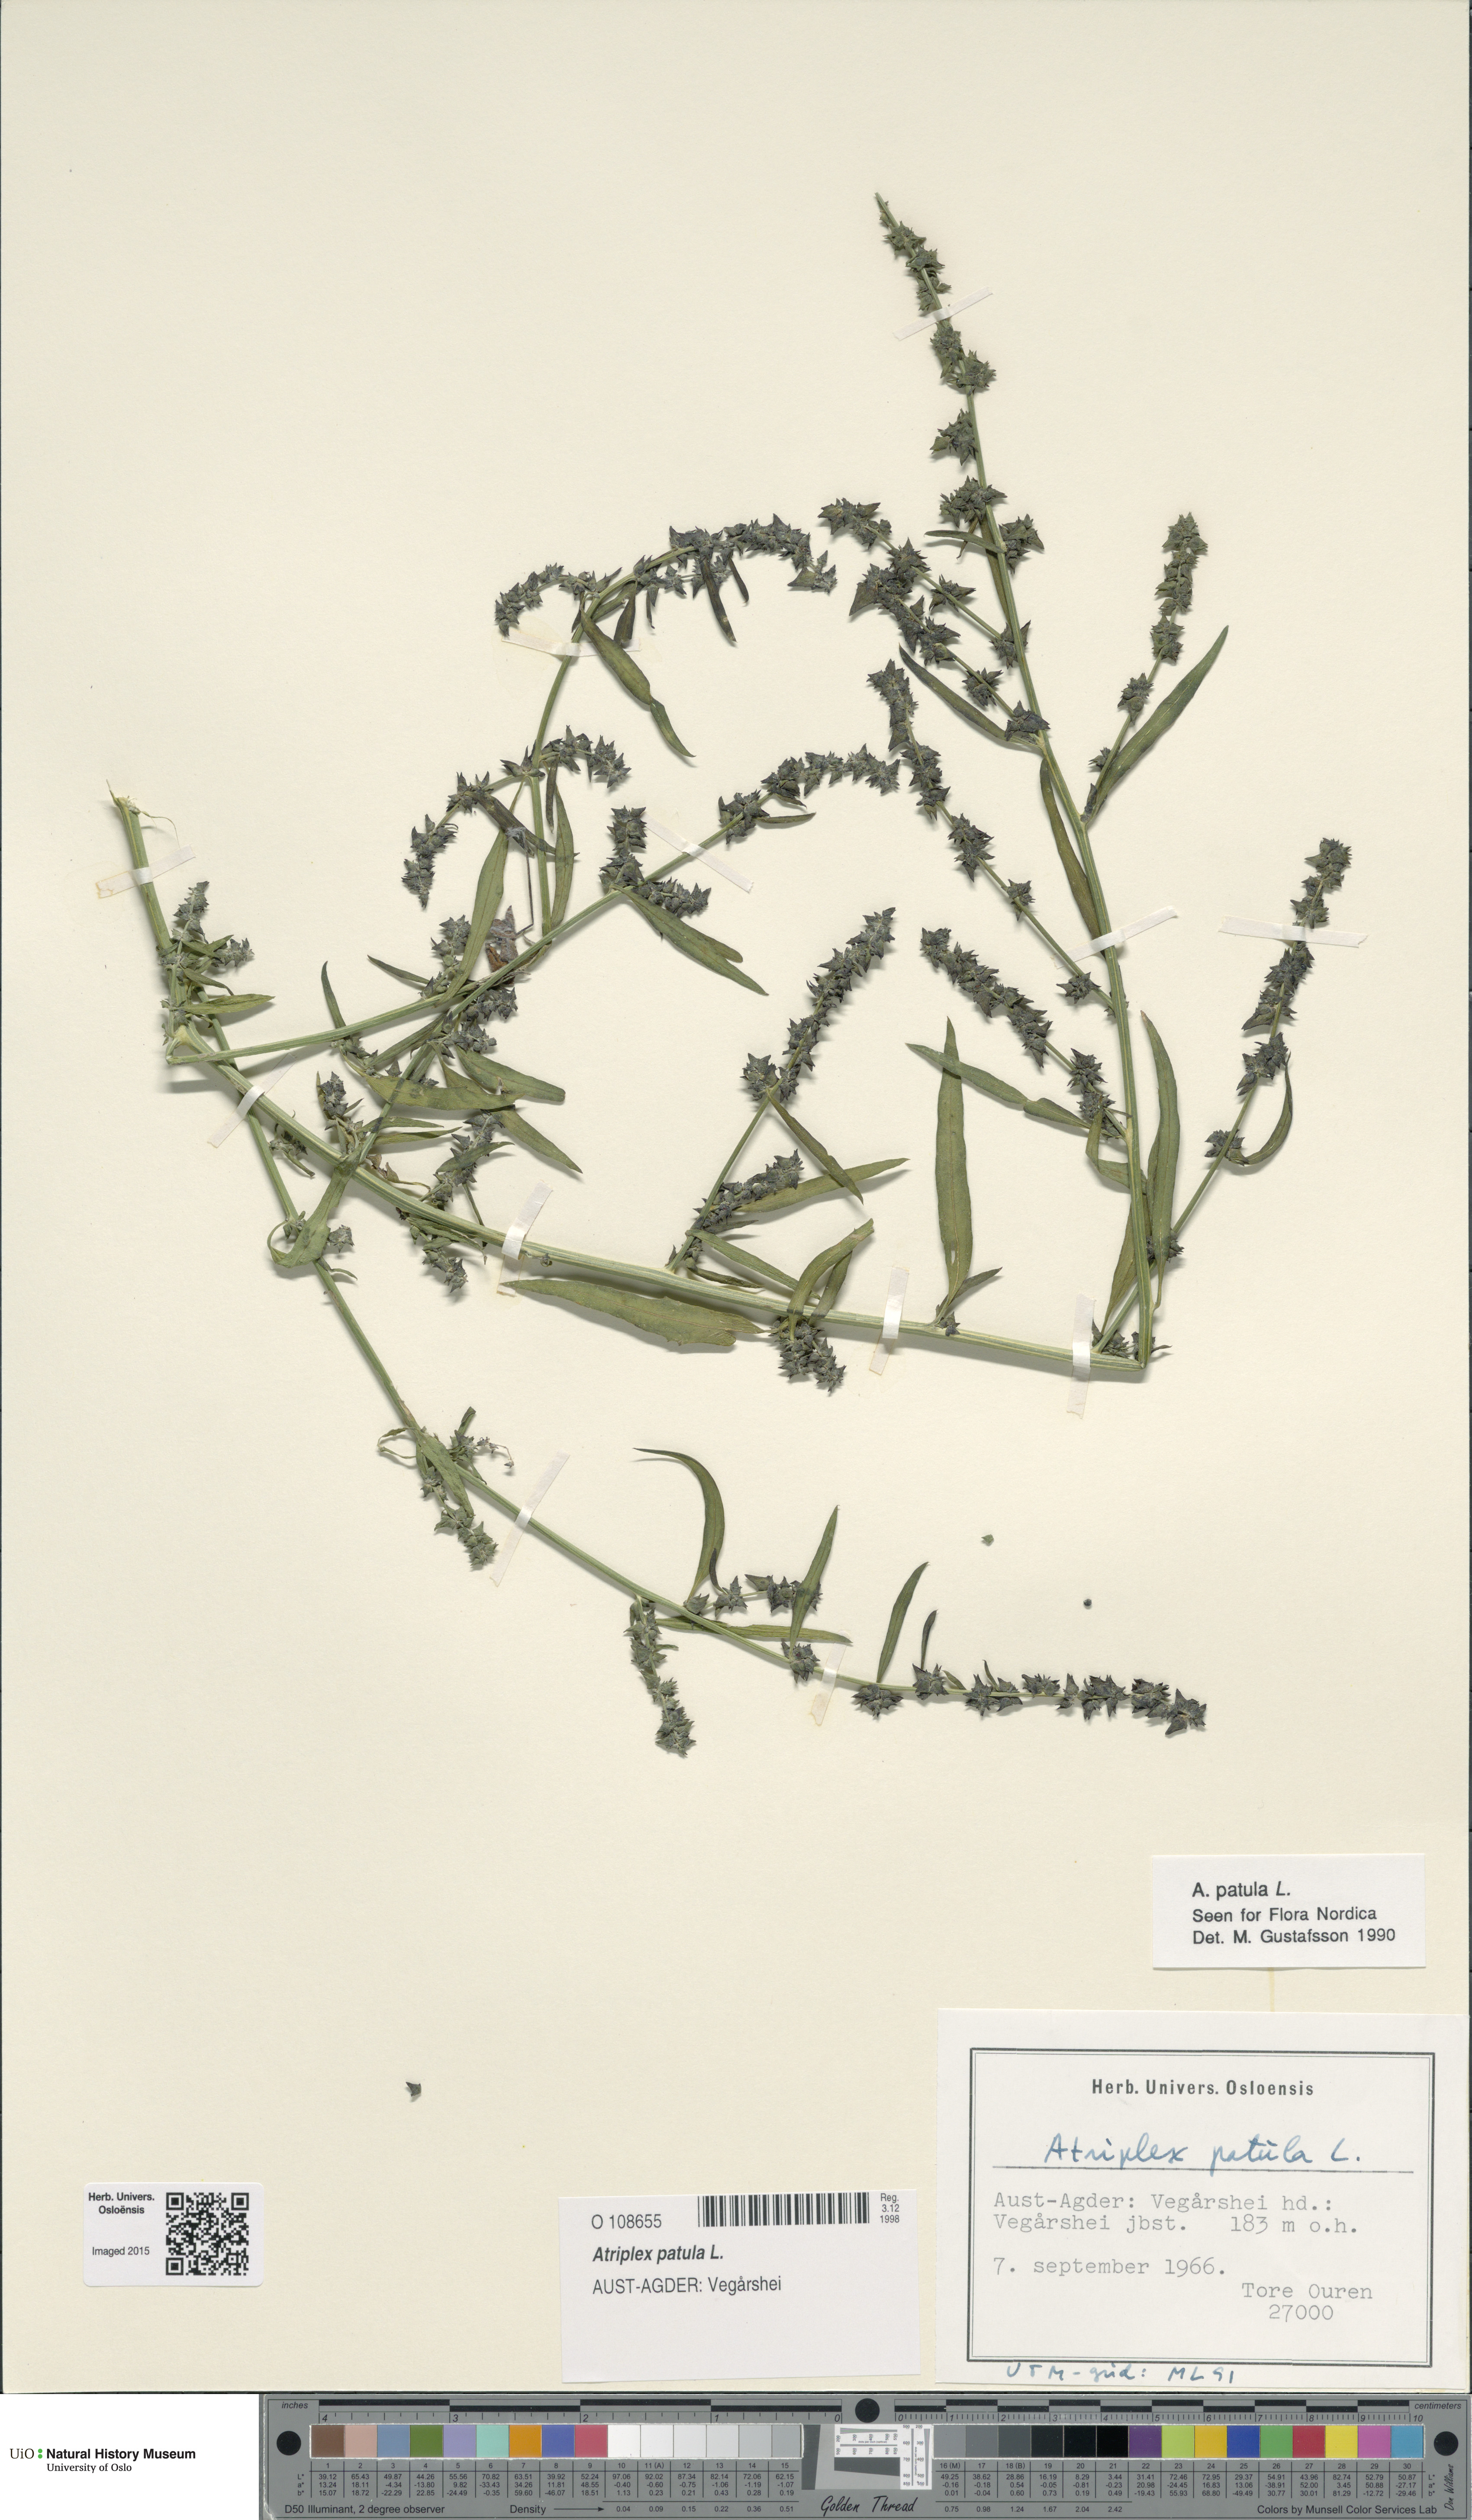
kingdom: Plantae
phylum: Tracheophyta
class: Magnoliopsida
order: Caryophyllales
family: Amaranthaceae
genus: Atriplex
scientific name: Atriplex patula
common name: Common orache
